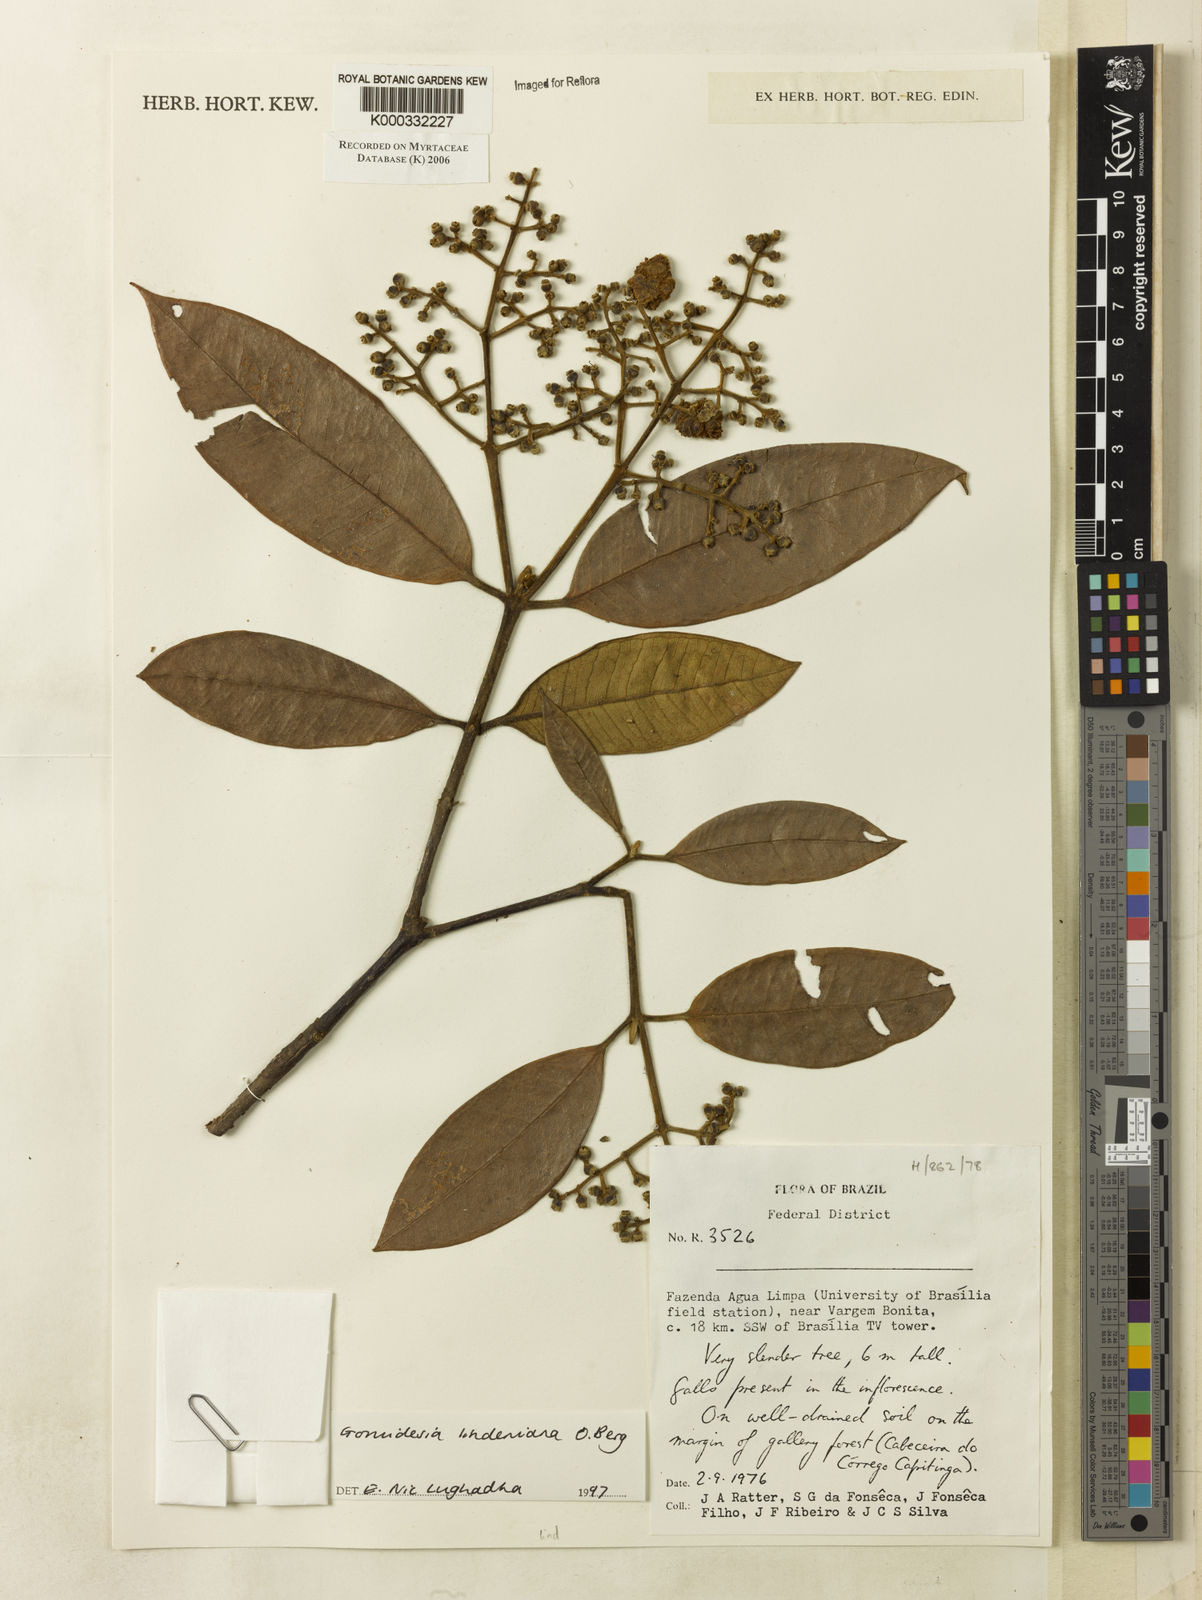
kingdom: Plantae
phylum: Tracheophyta
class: Magnoliopsida
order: Myrtales
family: Myrtaceae
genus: Myrcia
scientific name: Myrcia fenzliana
